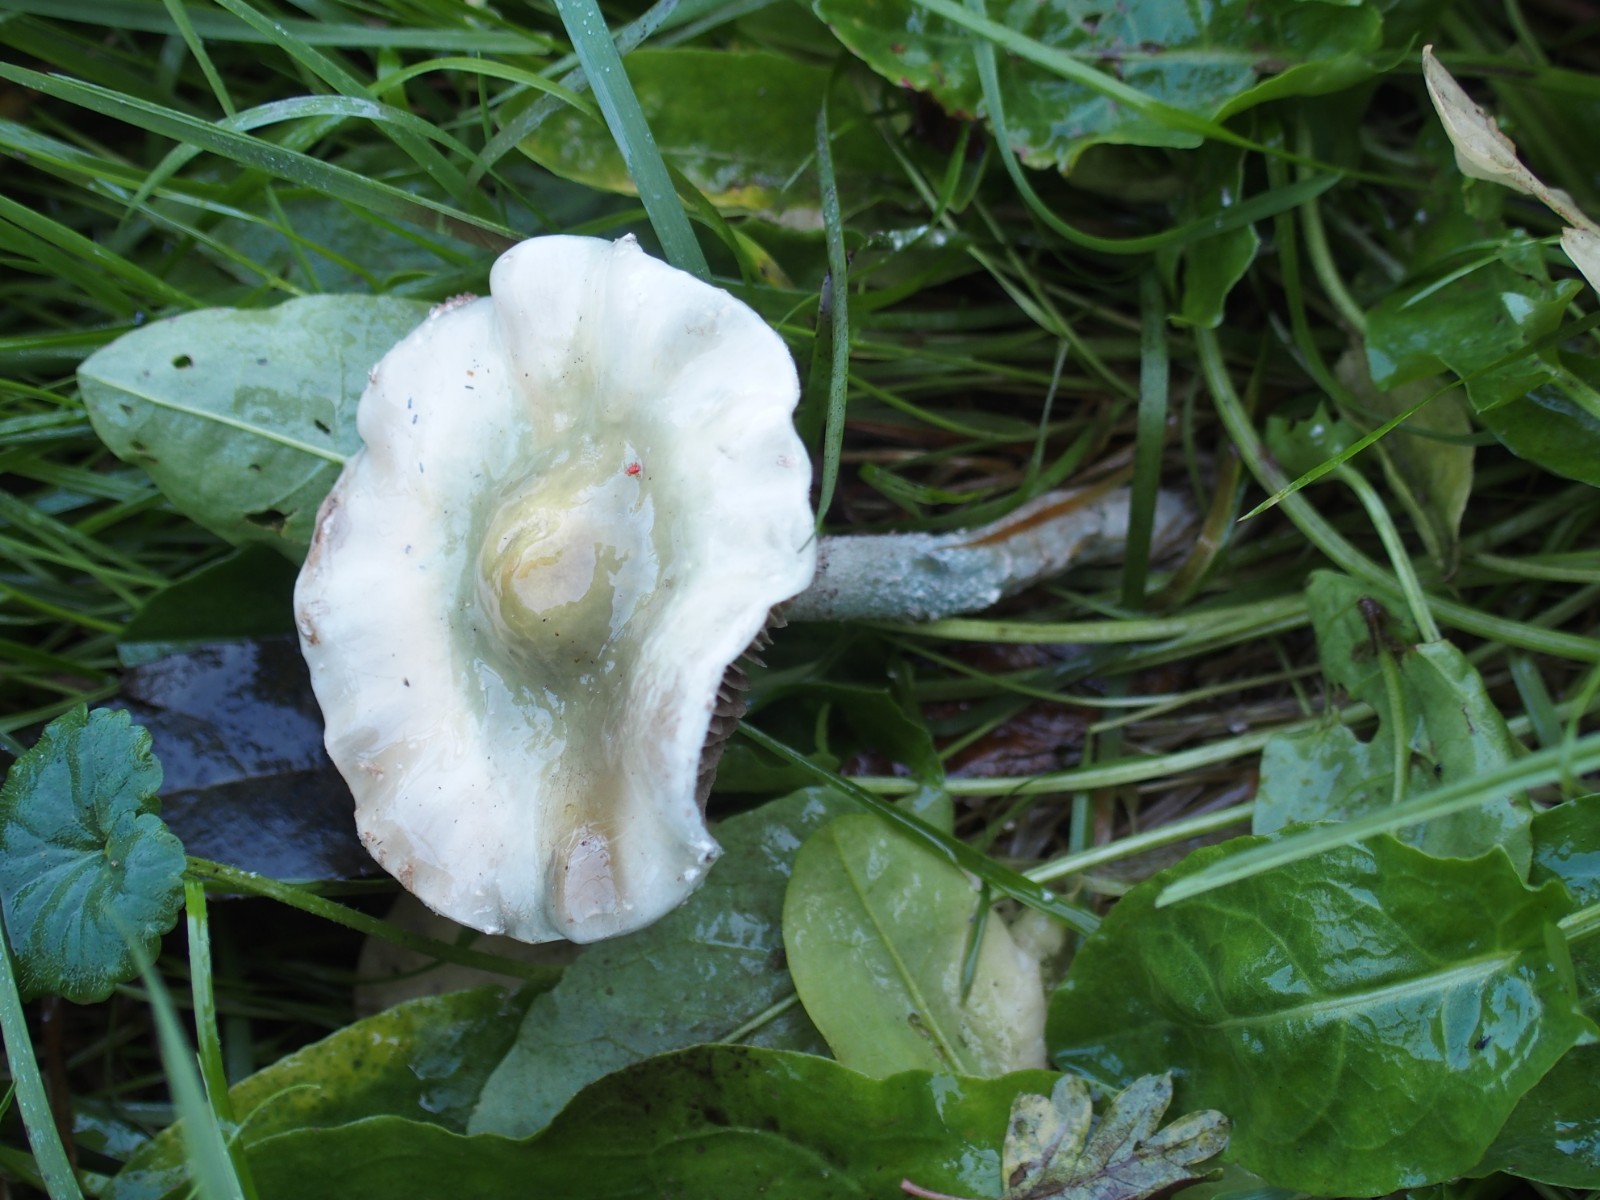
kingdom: Fungi
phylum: Basidiomycota
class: Agaricomycetes
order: Agaricales
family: Strophariaceae
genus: Stropharia
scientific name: Stropharia cyanea
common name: blågrøn bredblad
